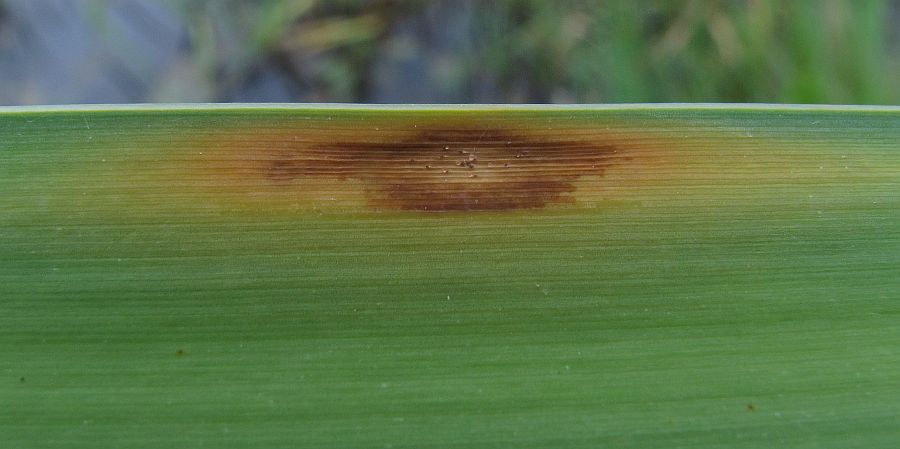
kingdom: Fungi
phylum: Ascomycota
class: Dothideomycetes
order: Pleosporales
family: Diademaceae
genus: Comoclathris
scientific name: Comoclathris typhicola
